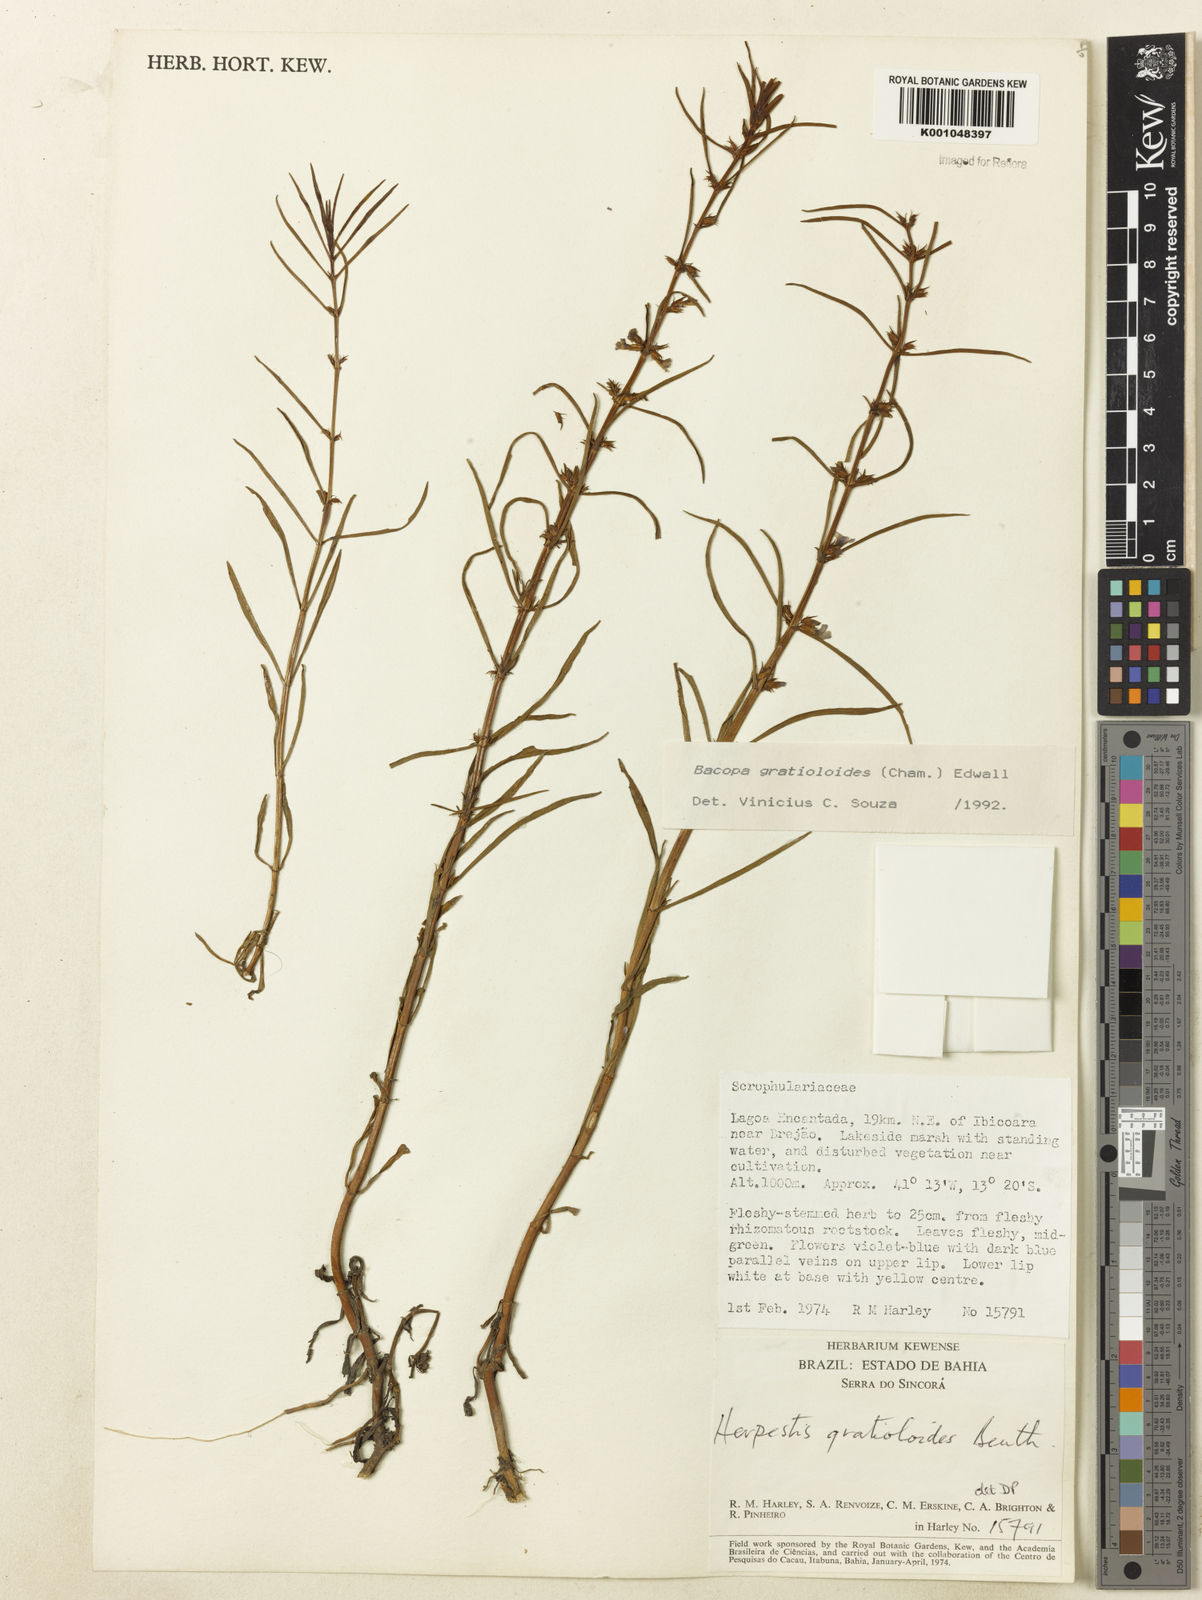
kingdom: Plantae
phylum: Tracheophyta
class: Magnoliopsida
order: Lamiales
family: Plantaginaceae
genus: Bacopa
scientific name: Bacopa
